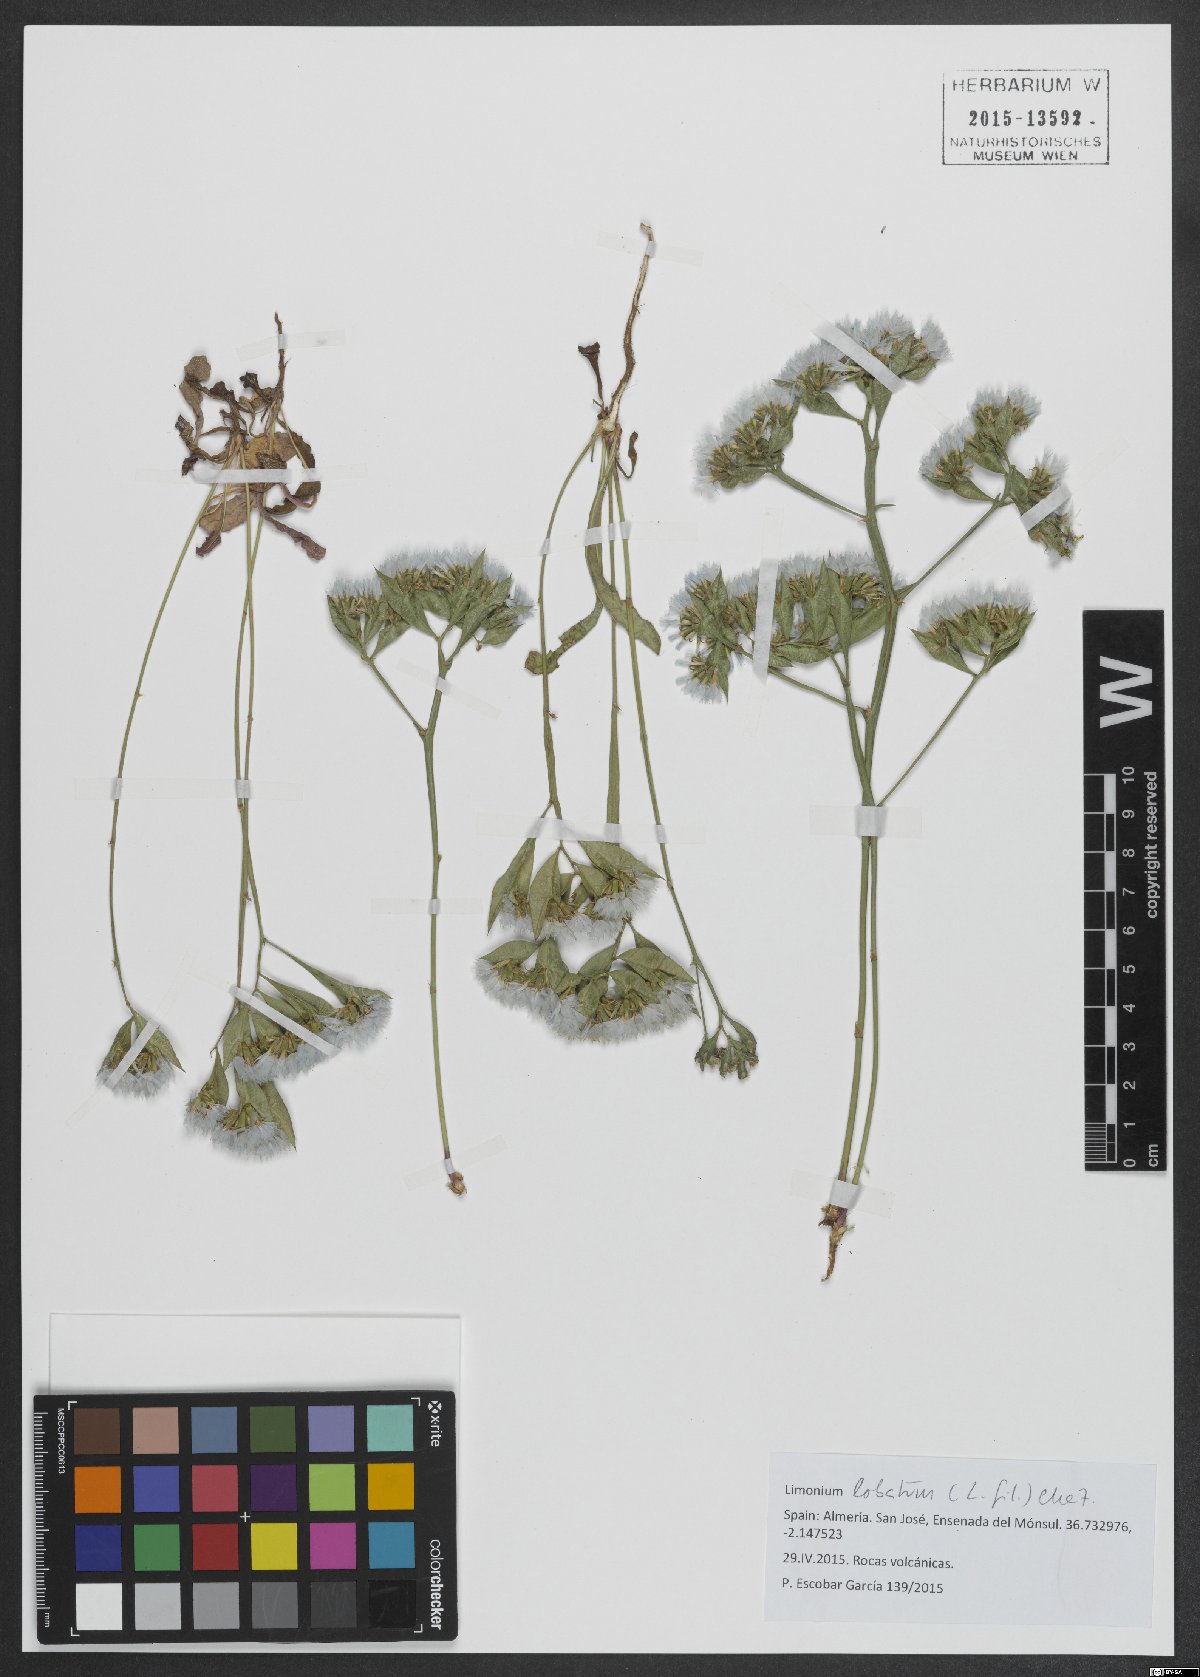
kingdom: Plantae
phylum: Tracheophyta
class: Magnoliopsida
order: Caryophyllales
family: Plumbaginaceae
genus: Limonium
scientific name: Limonium lobatum
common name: Winged sea-lavender
